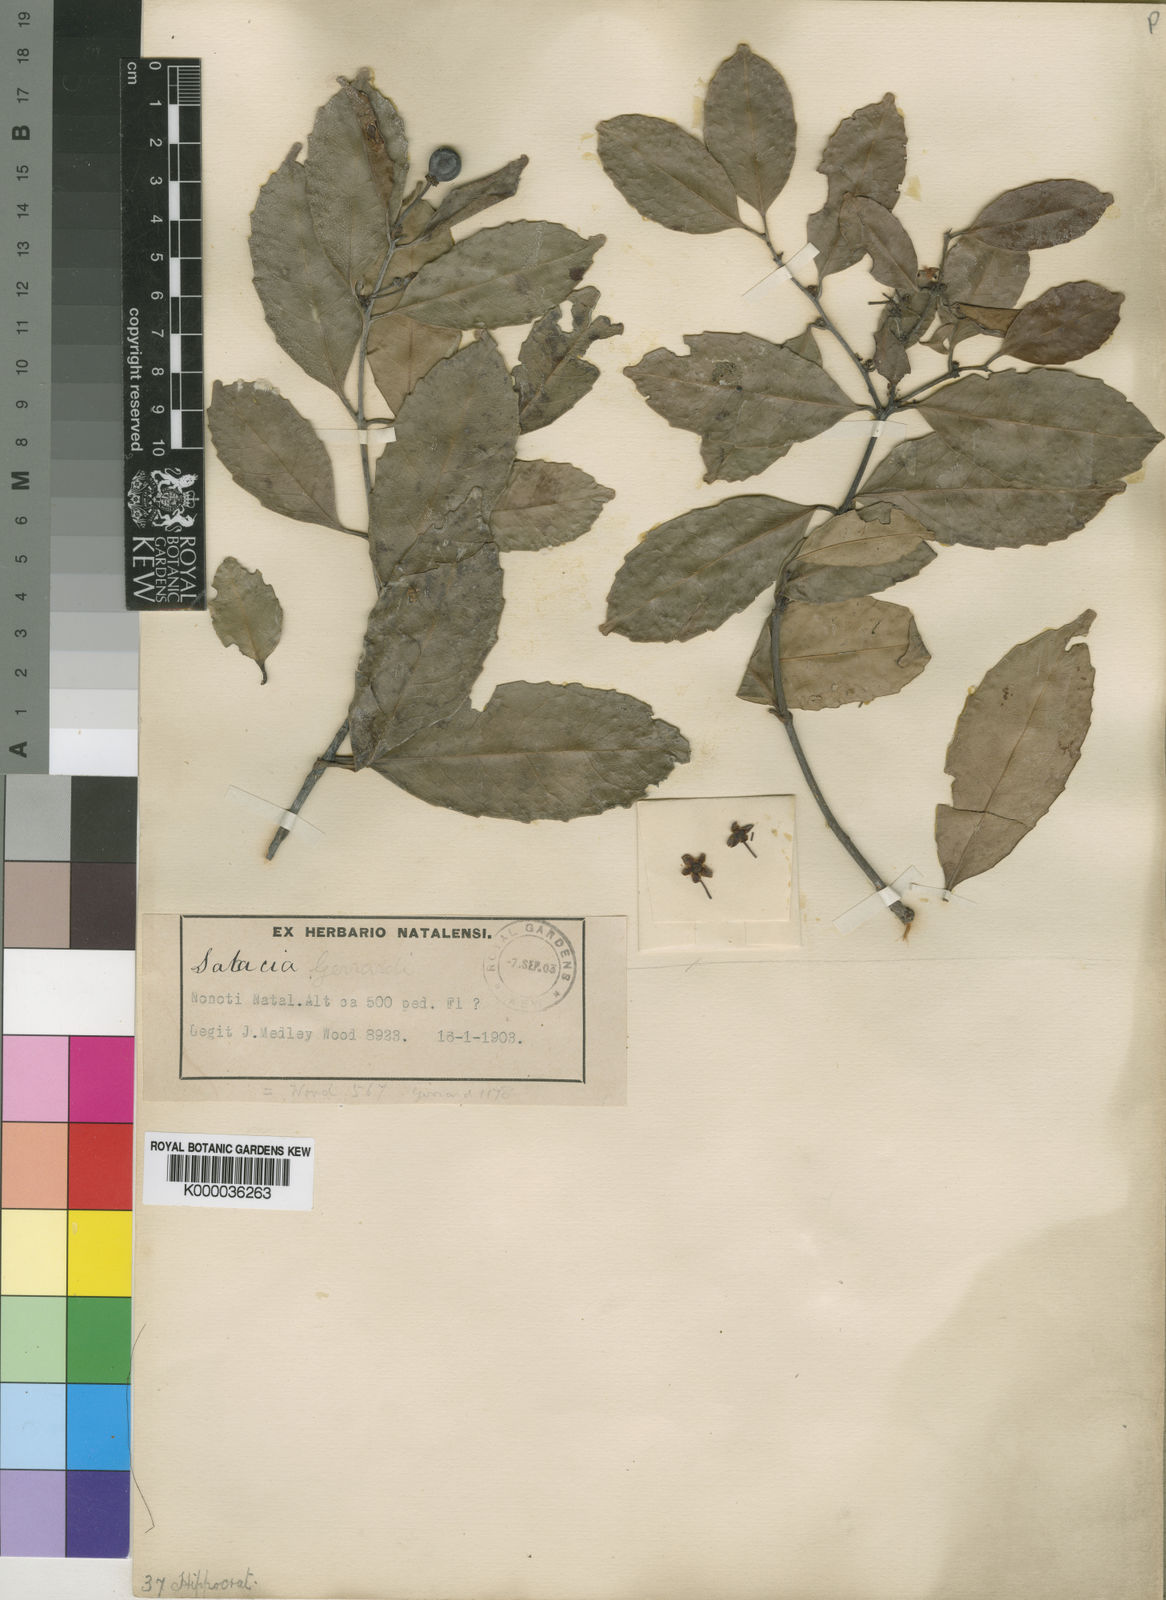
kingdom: Plantae
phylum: Tracheophyta
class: Magnoliopsida
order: Celastrales
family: Celastraceae
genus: Salacia
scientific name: Salacia gerrardii
